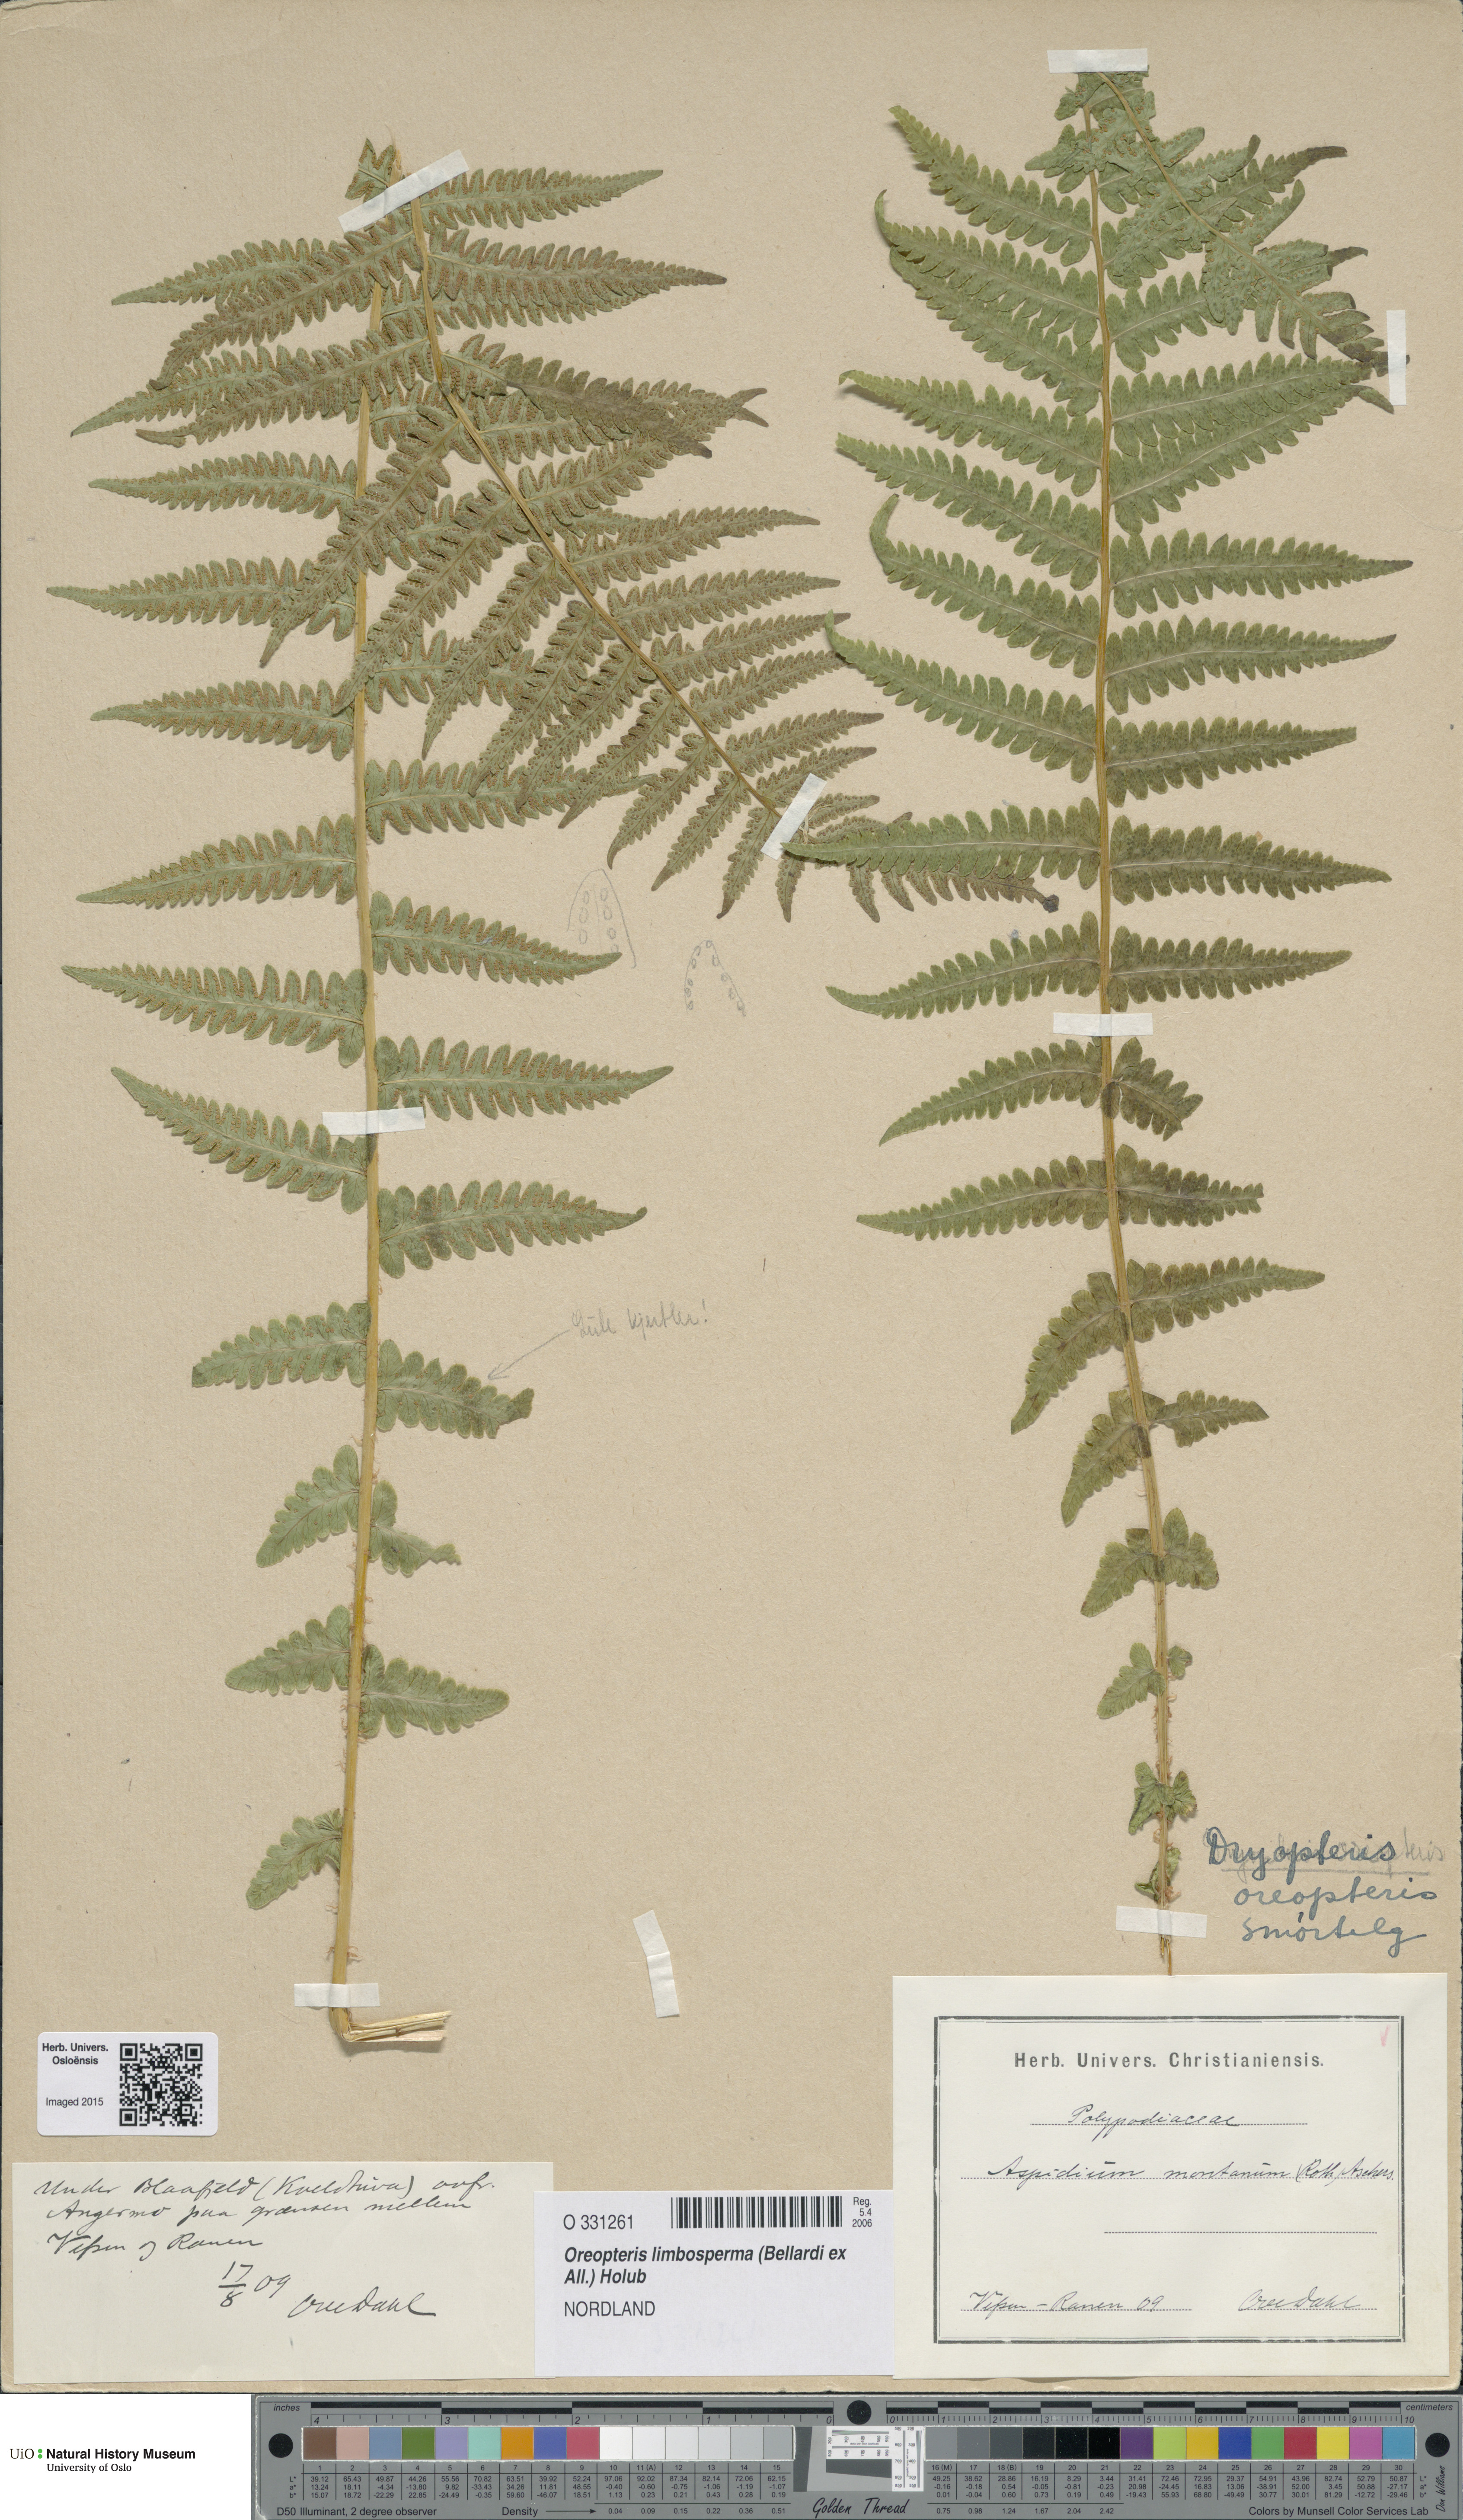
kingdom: Plantae
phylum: Tracheophyta
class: Polypodiopsida
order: Polypodiales
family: Thelypteridaceae
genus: Oreopteris
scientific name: Oreopteris limbosperma
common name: Lemon-scented fern
